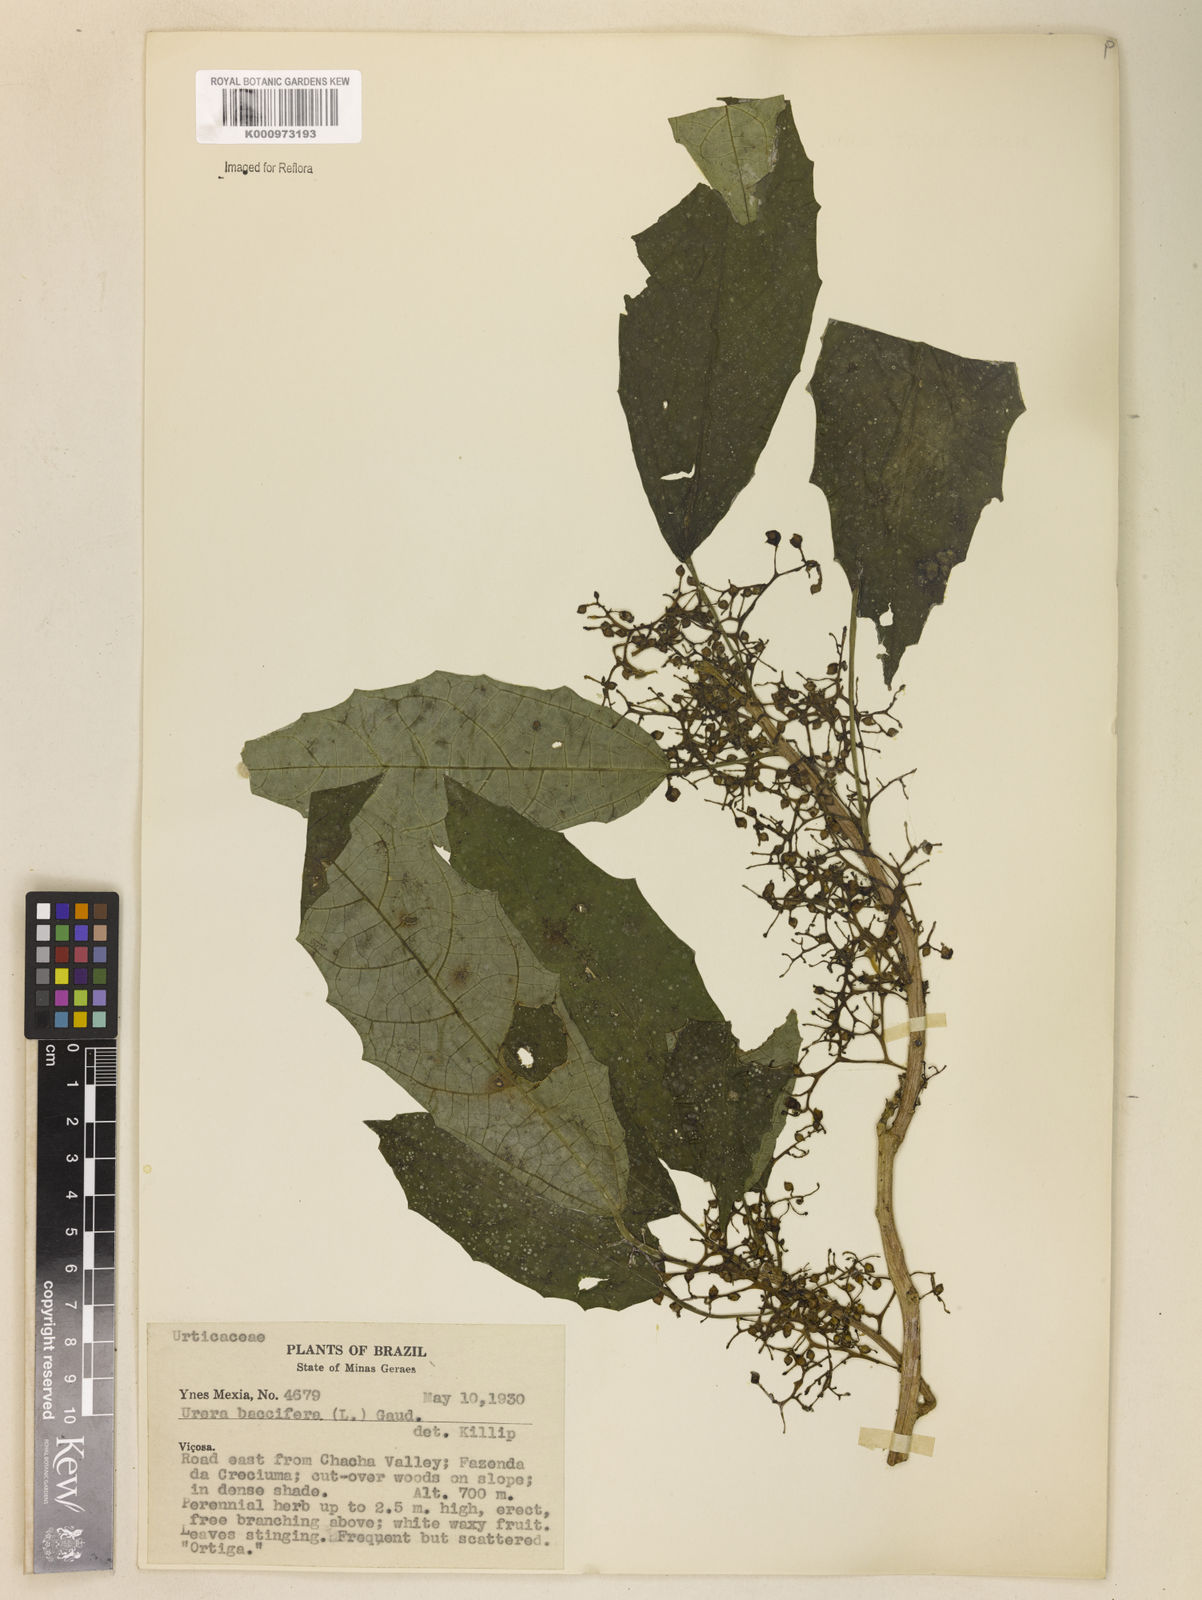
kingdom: Plantae
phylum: Tracheophyta
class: Magnoliopsida
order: Rosales
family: Urticaceae
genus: Urera
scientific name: Urera baccifera
